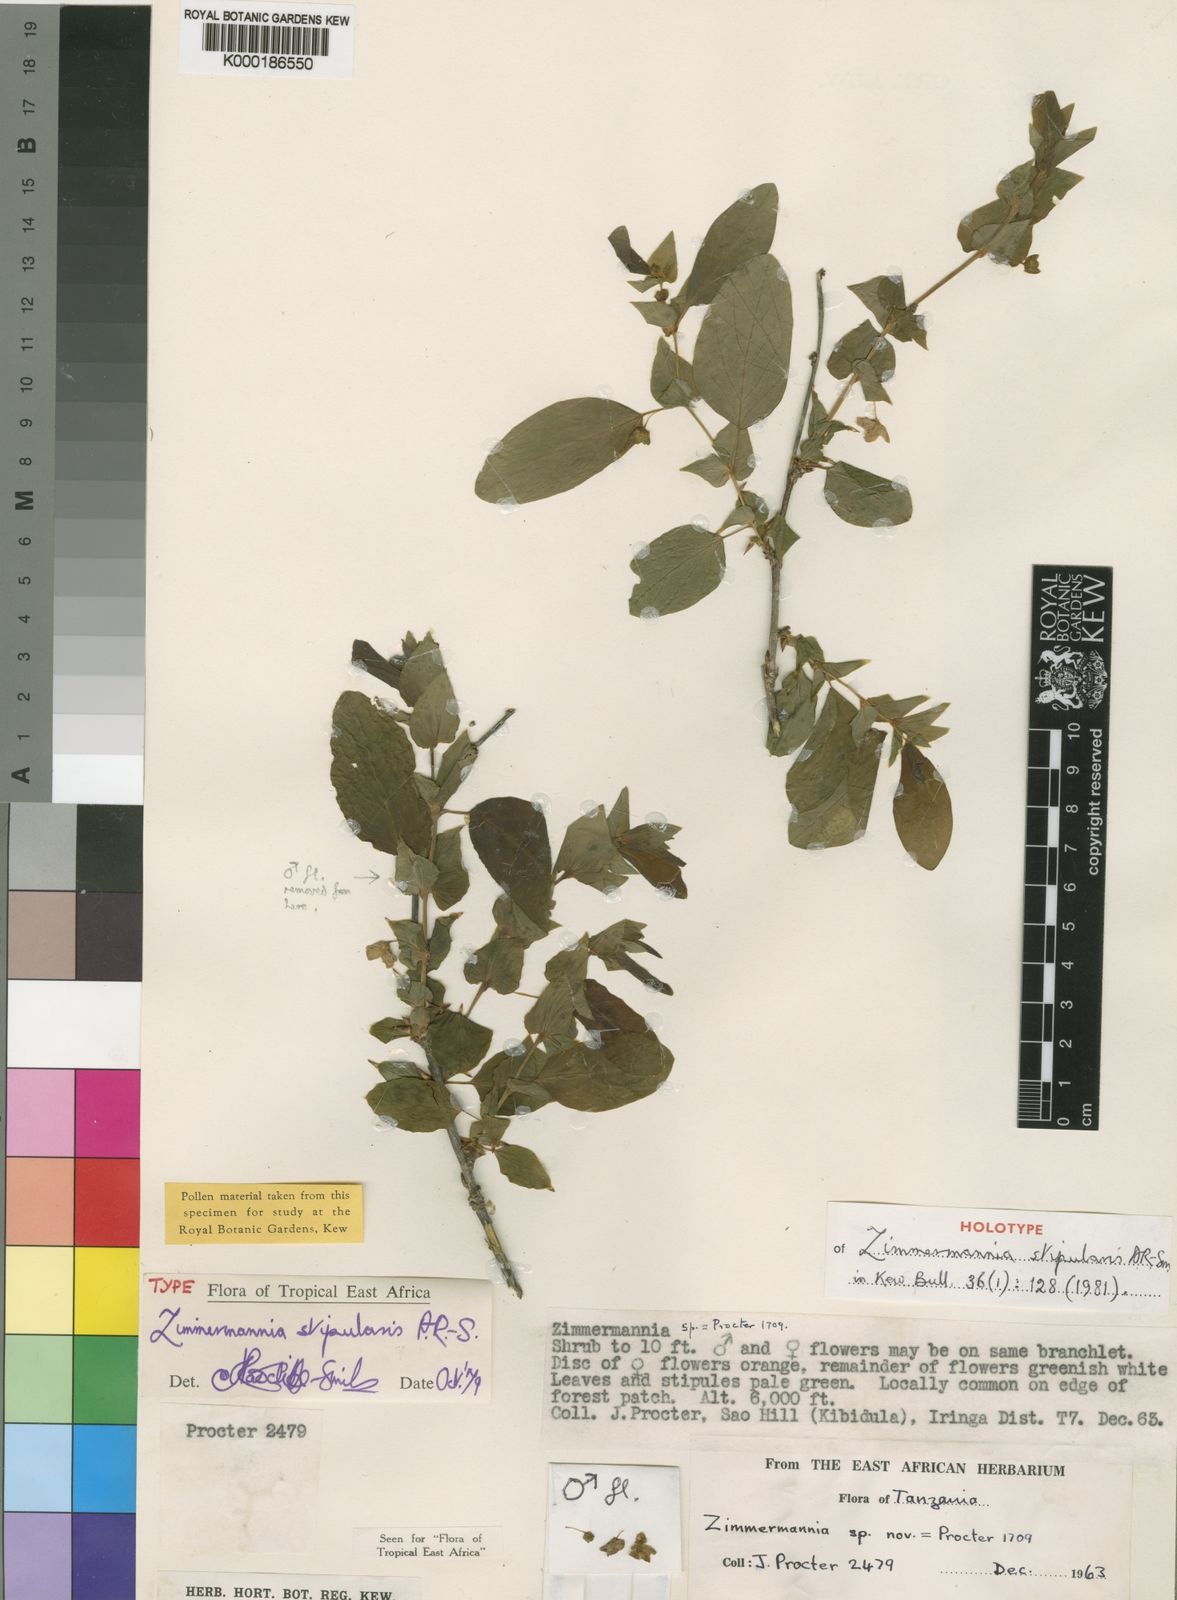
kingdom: Plantae
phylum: Tracheophyta
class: Magnoliopsida
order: Malpighiales
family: Phyllanthaceae
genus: Meineckia
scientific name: Meineckia stipularis
